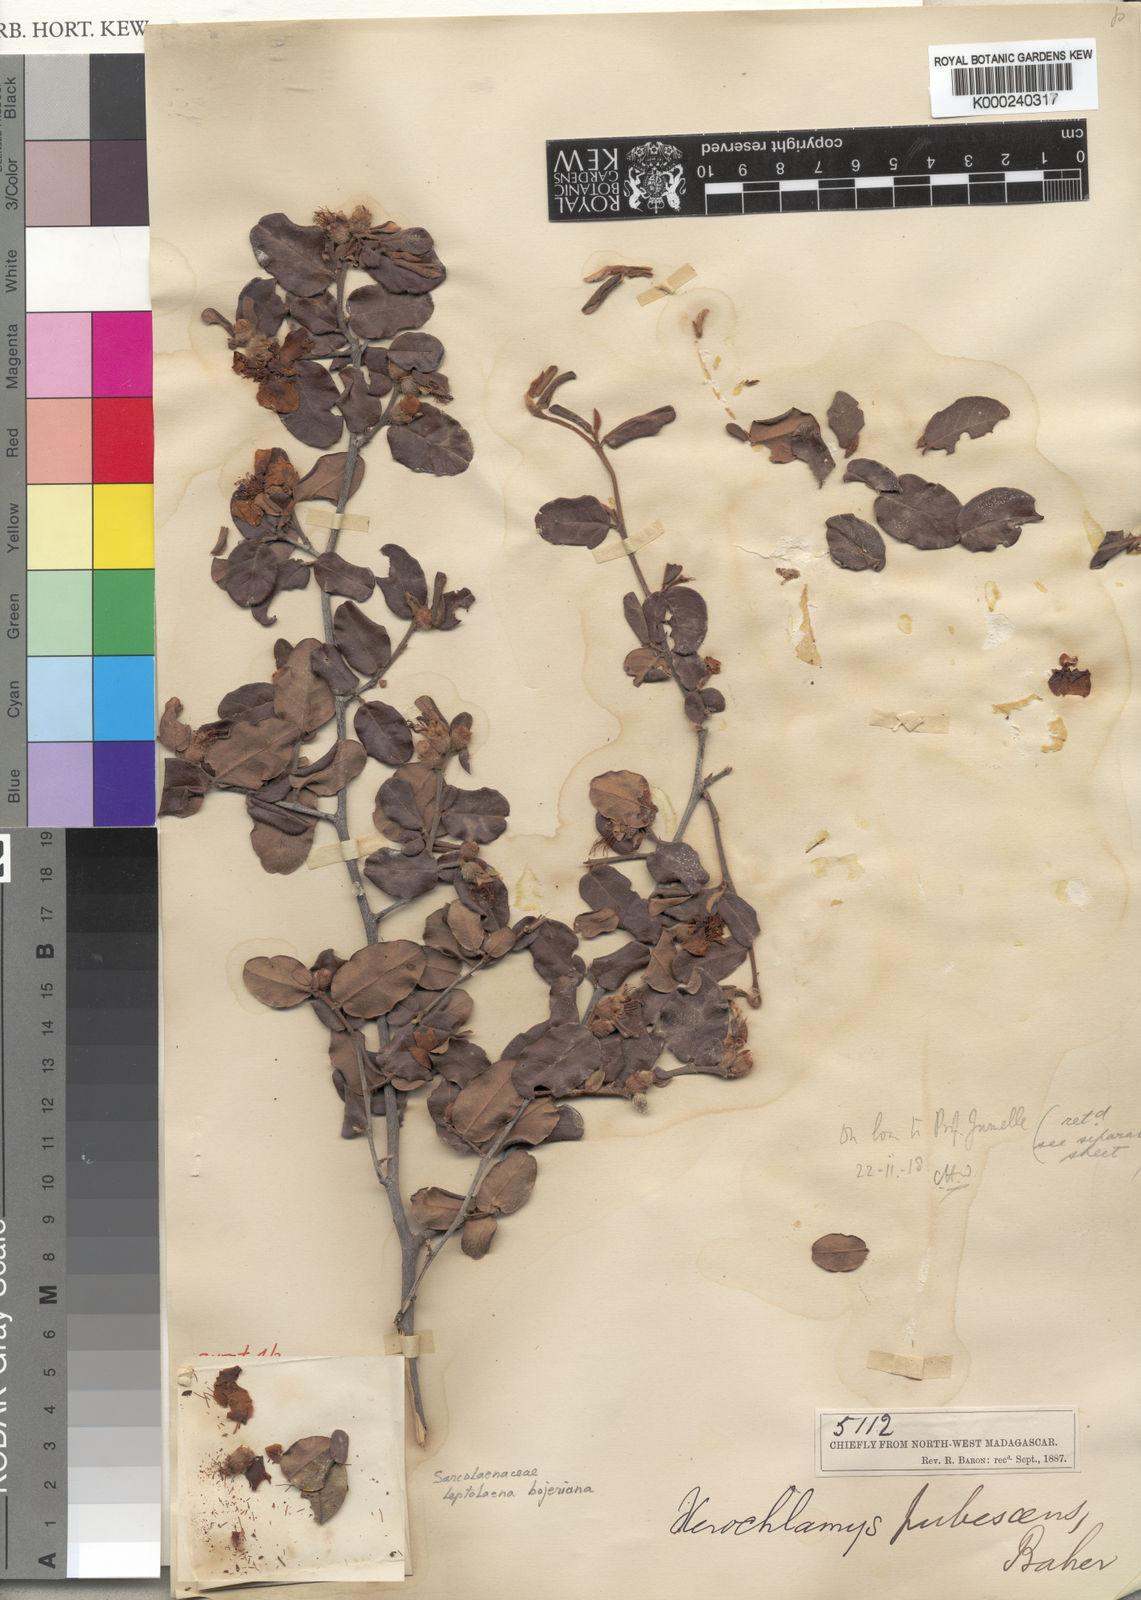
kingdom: Plantae
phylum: Tracheophyta
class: Magnoliopsida
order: Malvales
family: Sarcolaenaceae
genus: Xerochlamys
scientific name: Xerochlamys bojeriana
